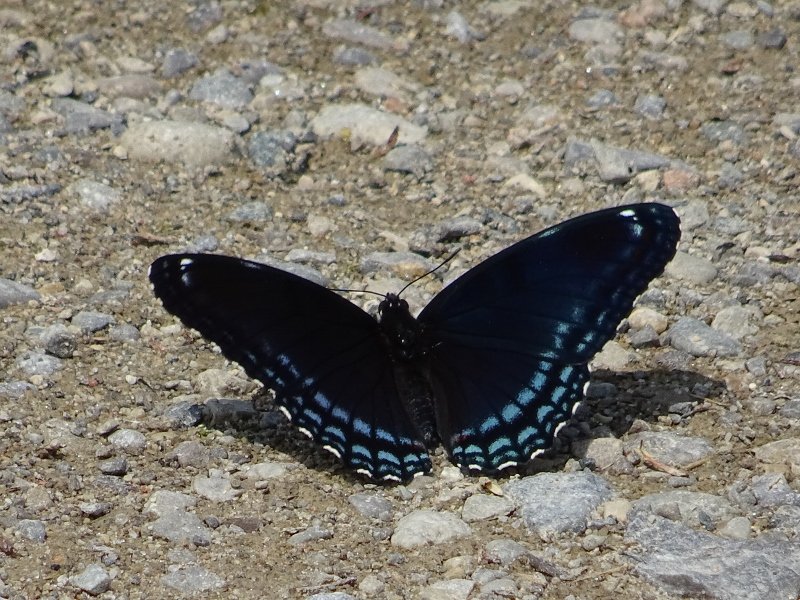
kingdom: Animalia
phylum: Arthropoda
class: Insecta
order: Lepidoptera
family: Nymphalidae
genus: Limenitis
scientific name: Limenitis astyanax
